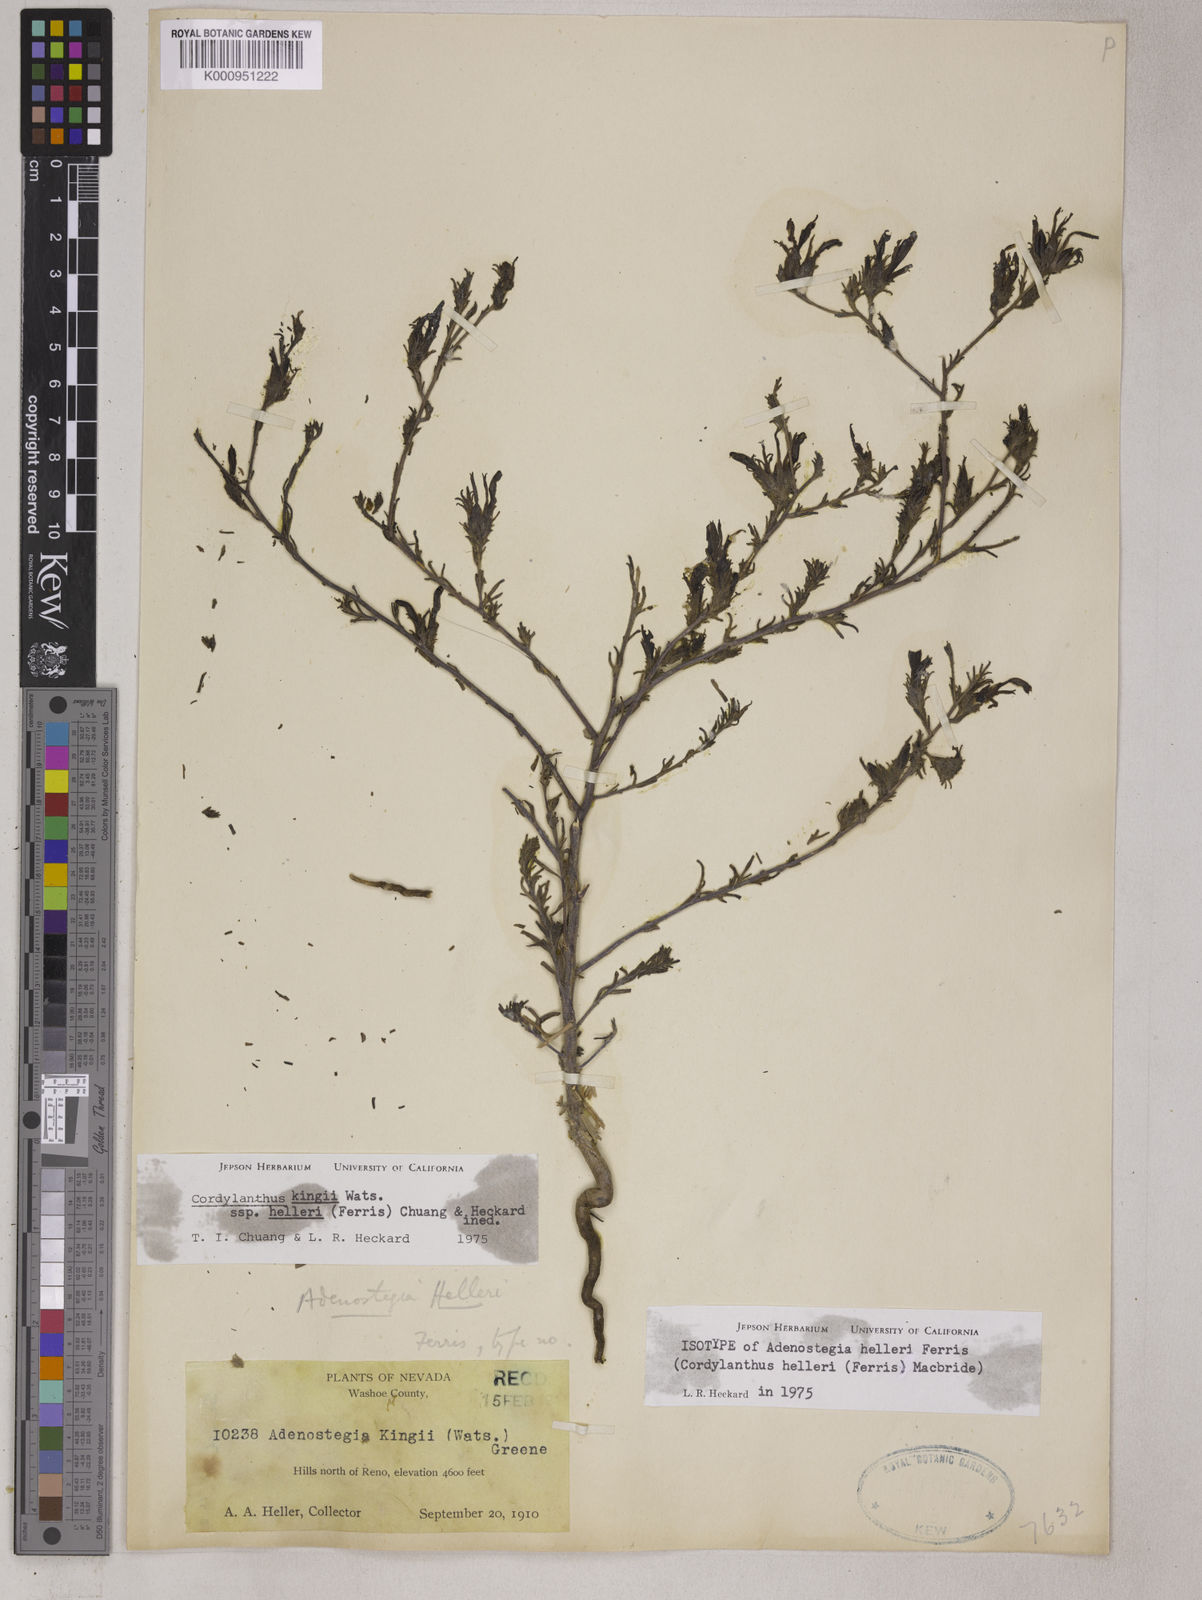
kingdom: Plantae
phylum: Tracheophyta
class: Magnoliopsida
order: Lamiales
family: Orobanchaceae
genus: Cordylanthus
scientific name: Cordylanthus kingii
